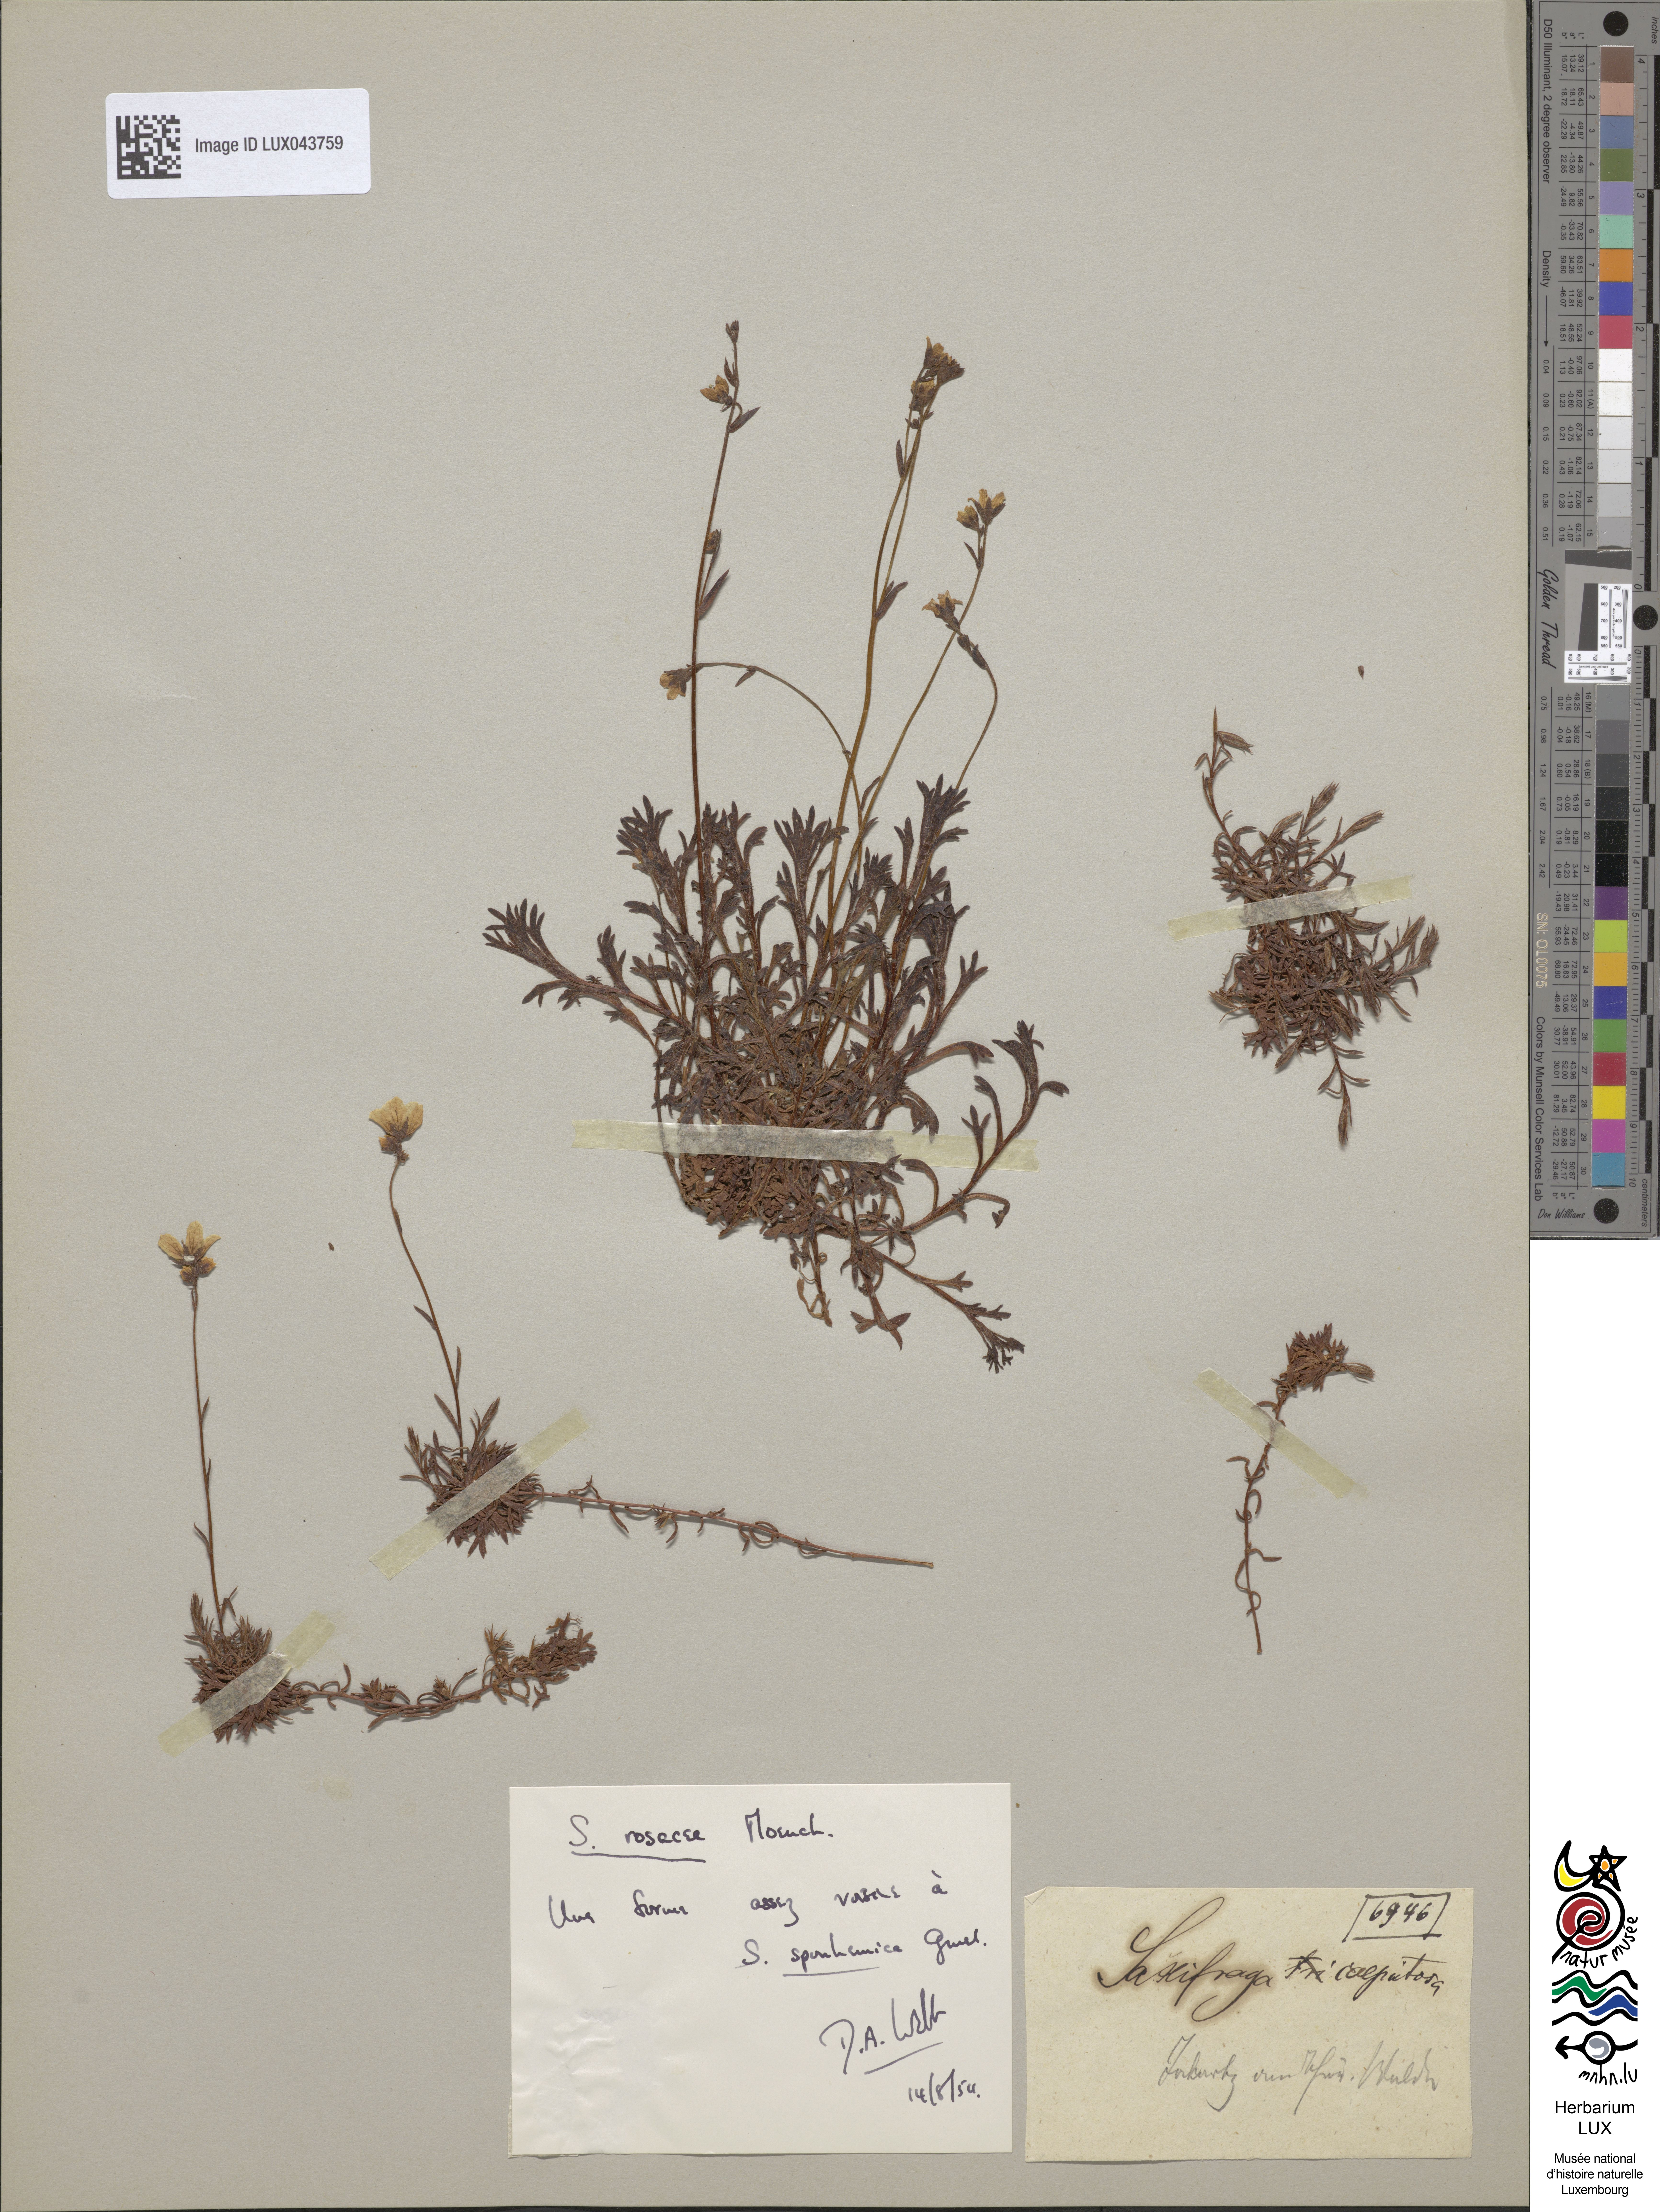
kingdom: Plantae
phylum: Tracheophyta
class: Magnoliopsida
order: Saxifragales
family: Saxifragaceae
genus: Saxifraga
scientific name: Saxifraga cespitosa
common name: Tufted saxifrage
